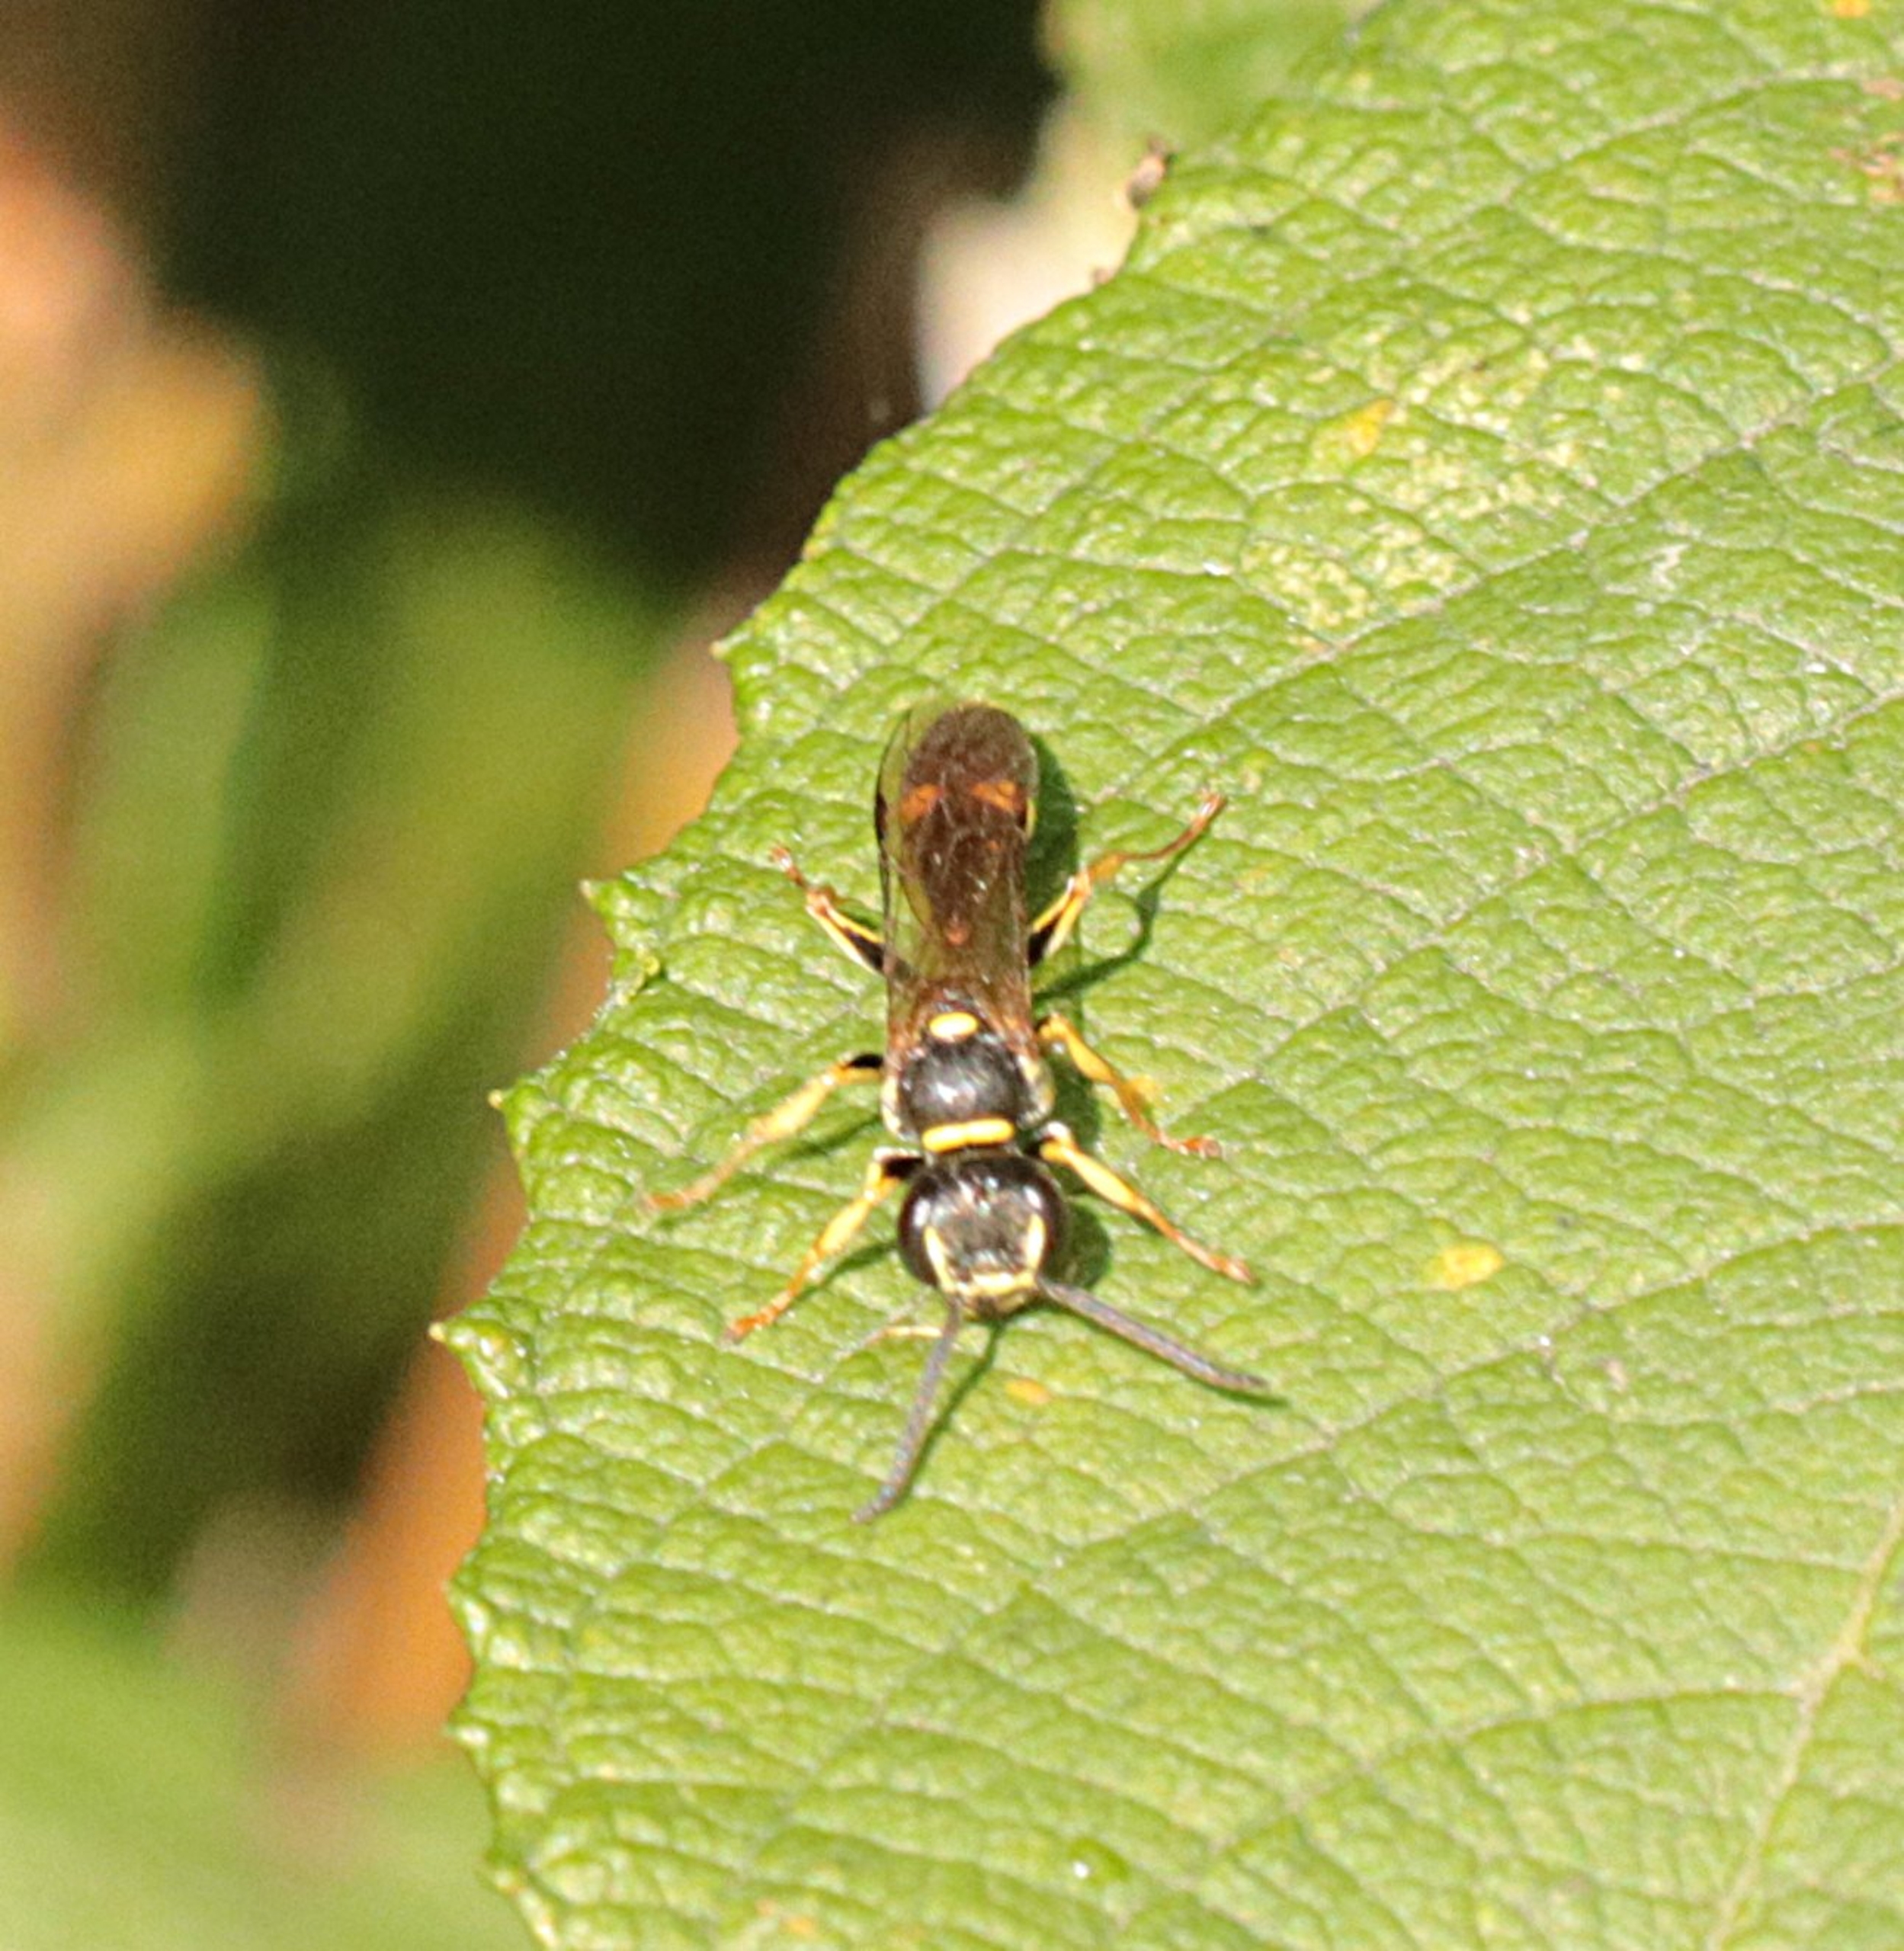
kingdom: Animalia
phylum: Arthropoda
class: Insecta
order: Hymenoptera
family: Crabronidae
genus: Mellinus
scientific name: Mellinus arvensis
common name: Efterårsgravehveps
